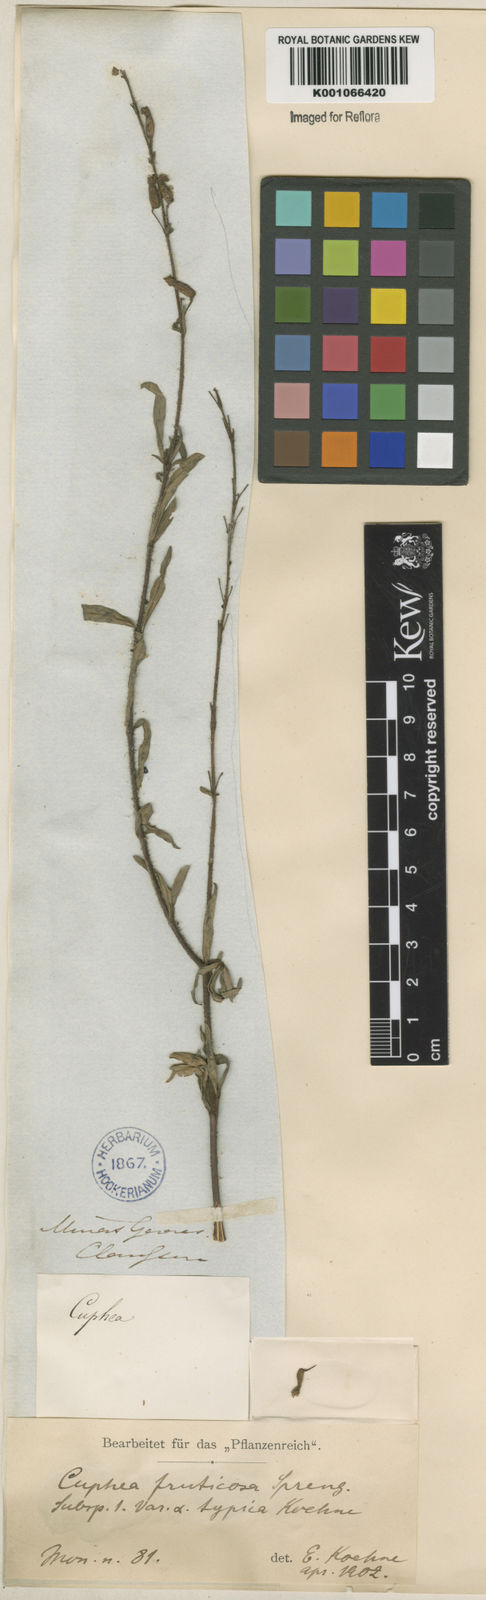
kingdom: Plantae
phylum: Tracheophyta
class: Magnoliopsida
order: Myrtales
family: Lythraceae
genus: Cuphea
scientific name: Cuphea fruticosa
